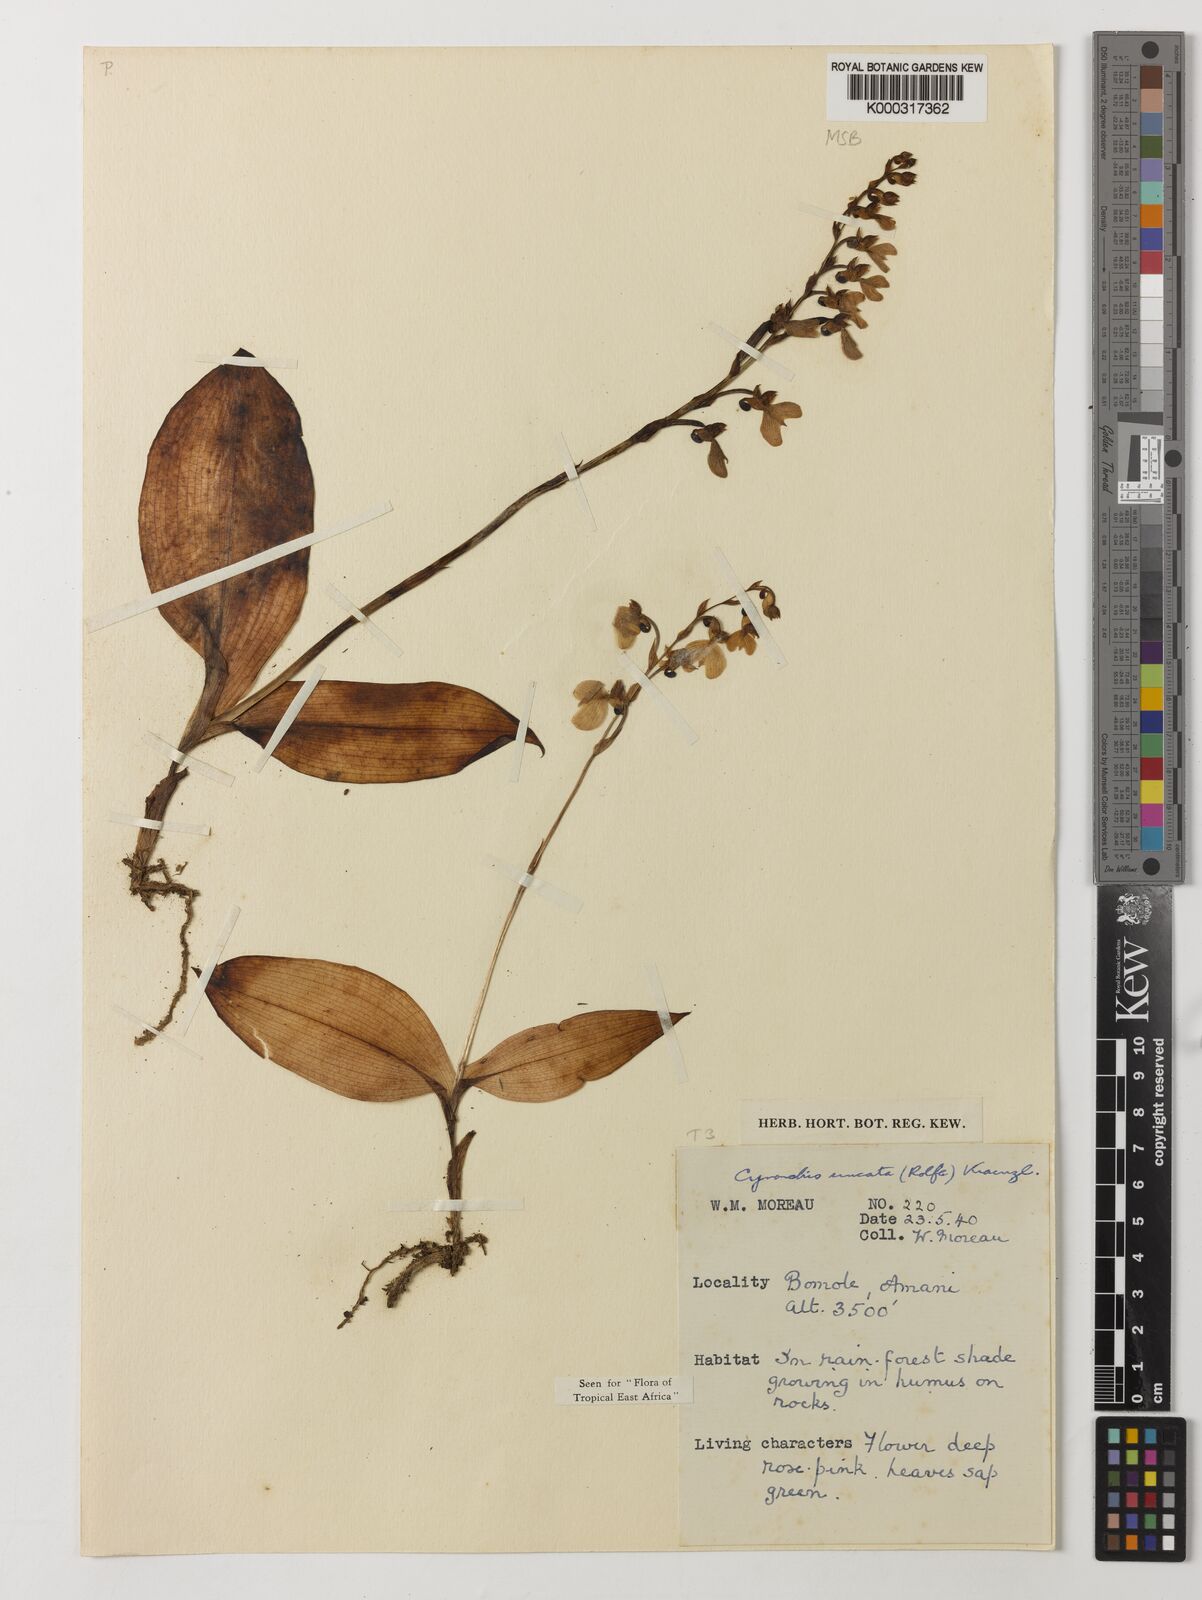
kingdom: Plantae
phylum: Tracheophyta
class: Liliopsida
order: Asparagales
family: Orchidaceae
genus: Cynorkis
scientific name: Cynorkis uncata
